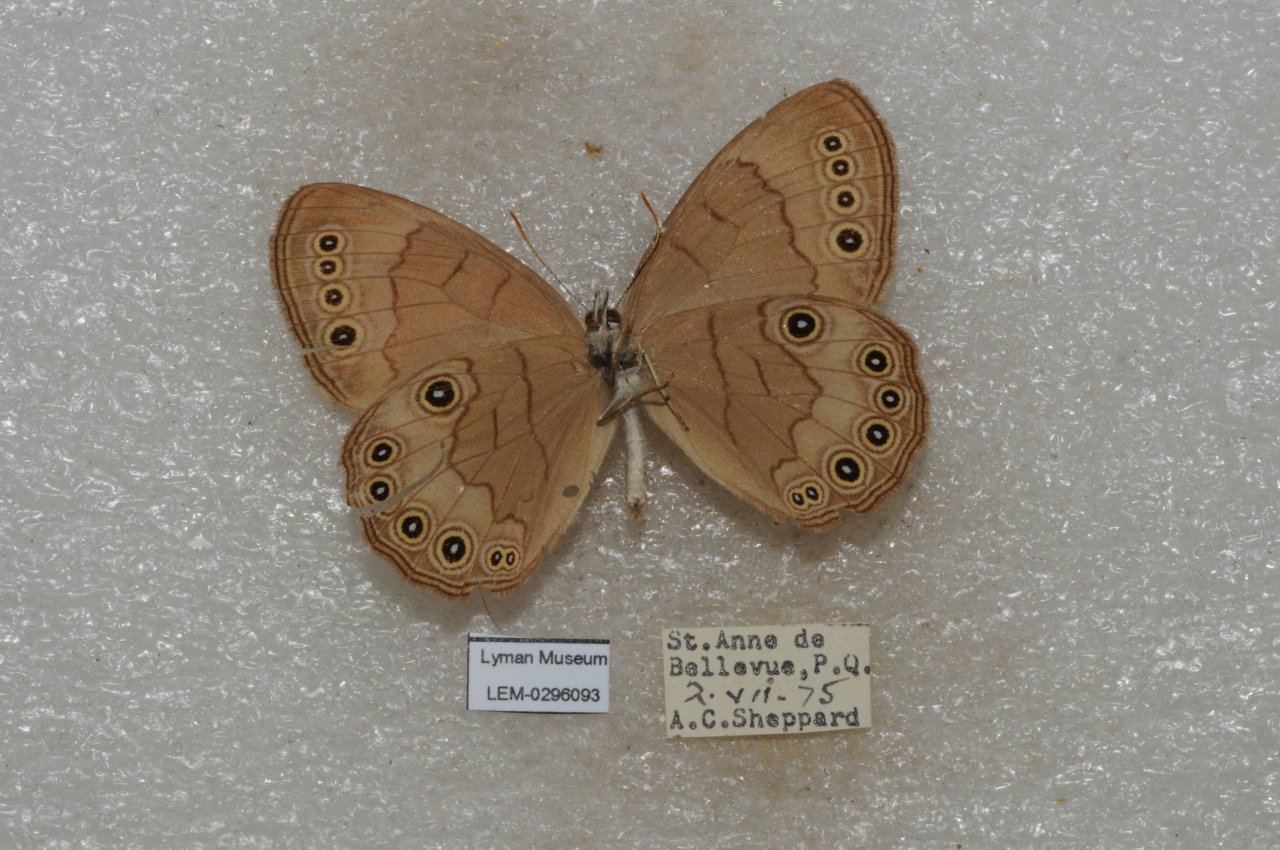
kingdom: Animalia
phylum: Arthropoda
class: Insecta
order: Lepidoptera
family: Nymphalidae
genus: Lethe
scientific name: Lethe
